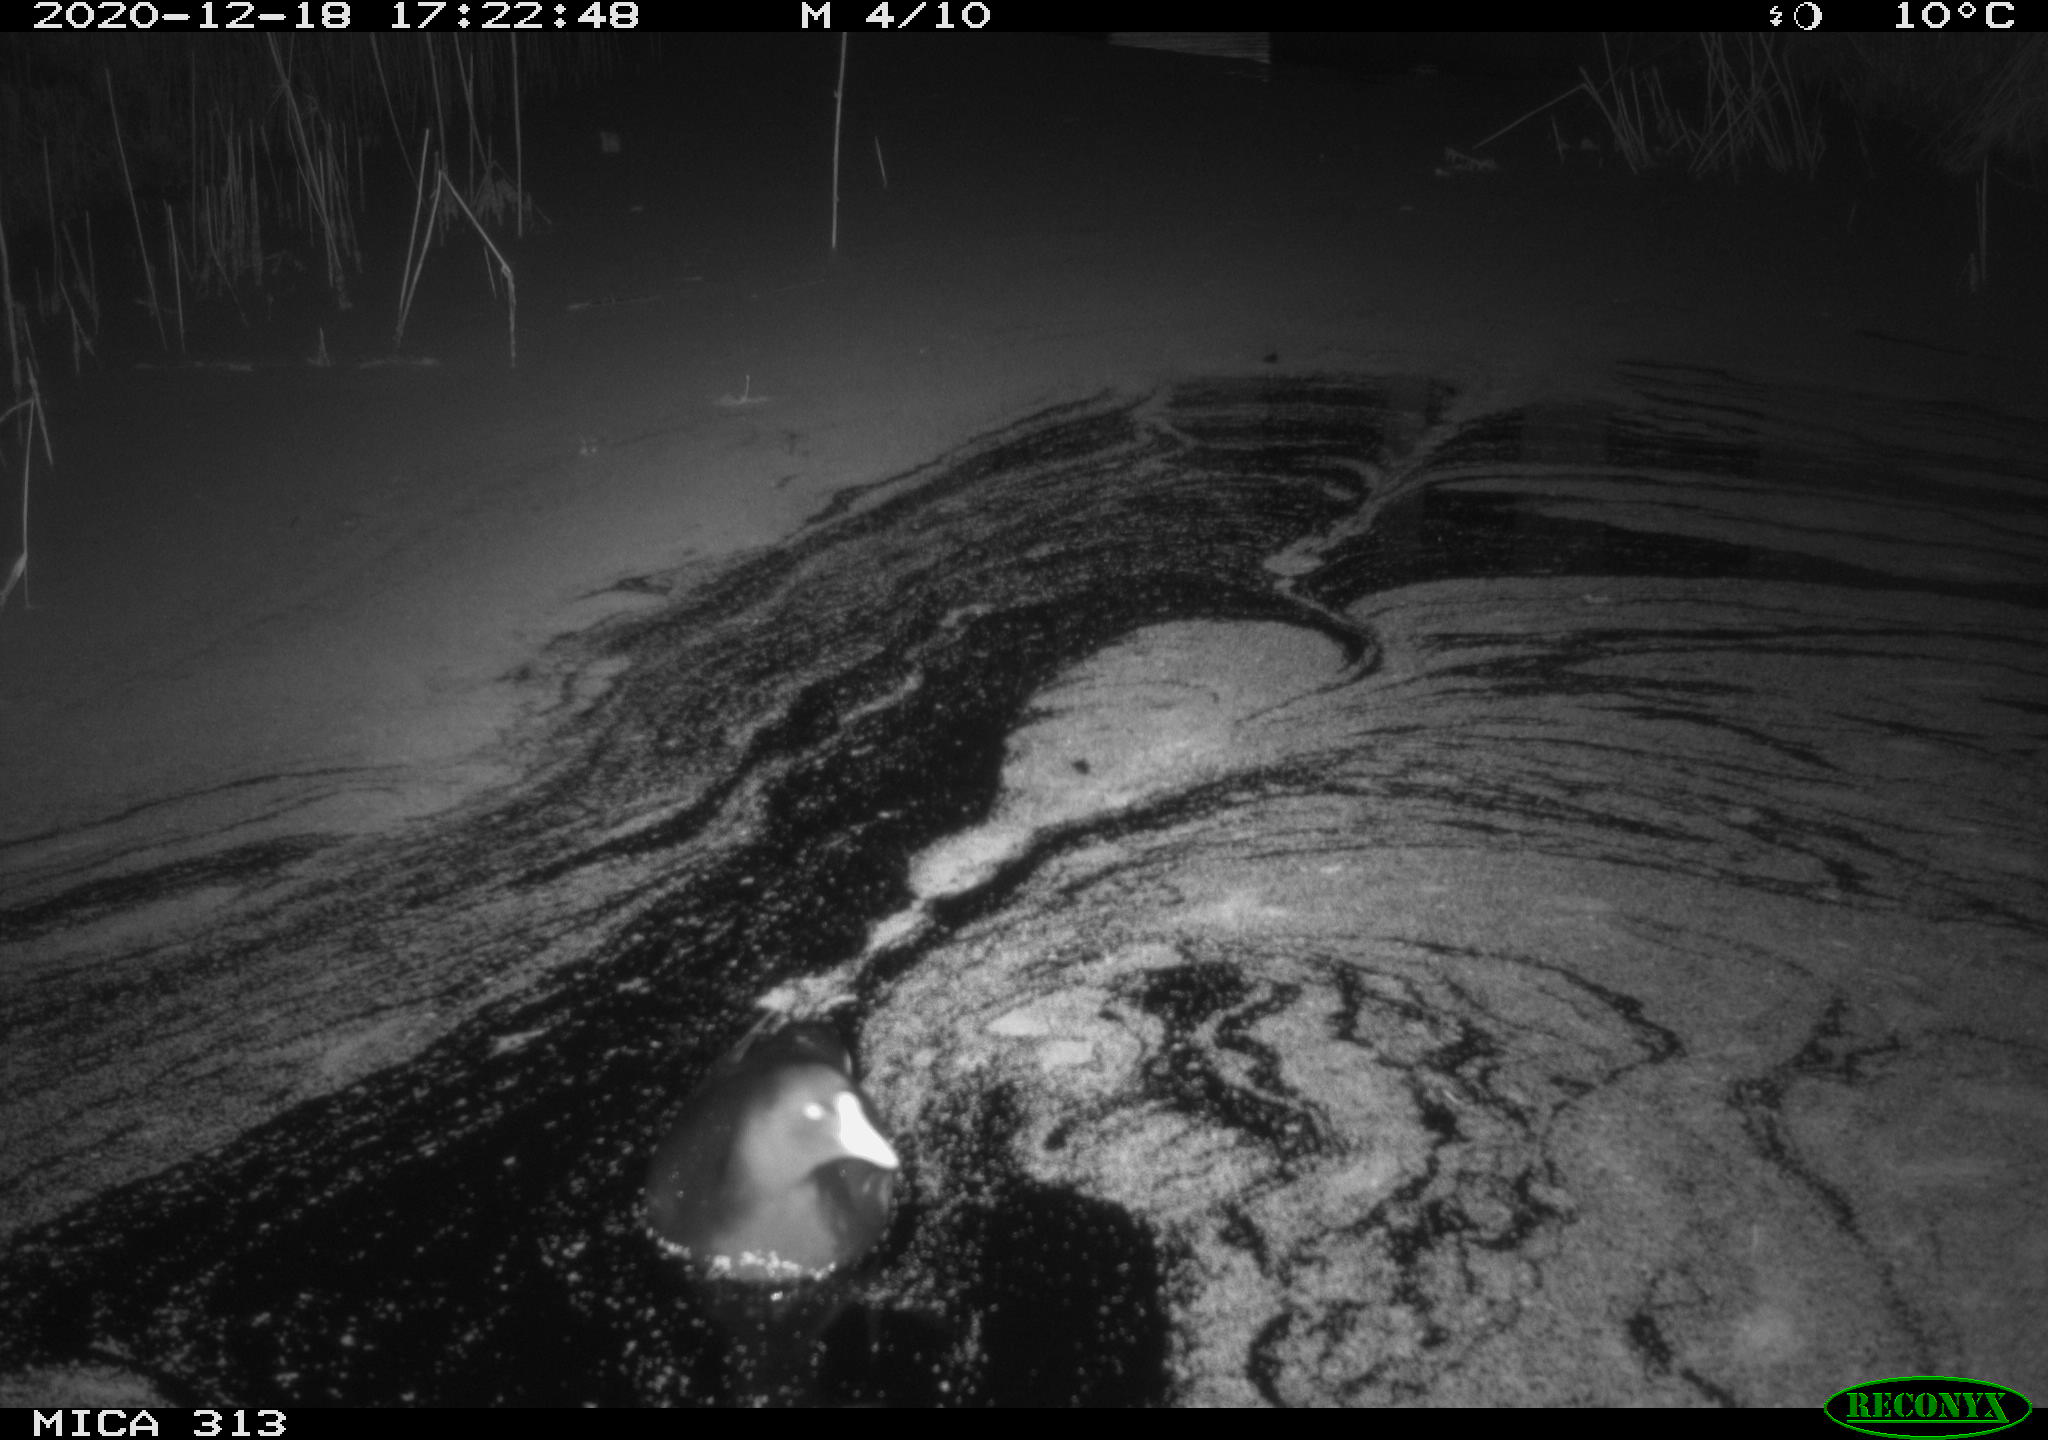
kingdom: Animalia
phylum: Chordata
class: Aves
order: Gruiformes
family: Rallidae
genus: Fulica
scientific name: Fulica atra
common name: Eurasian coot
